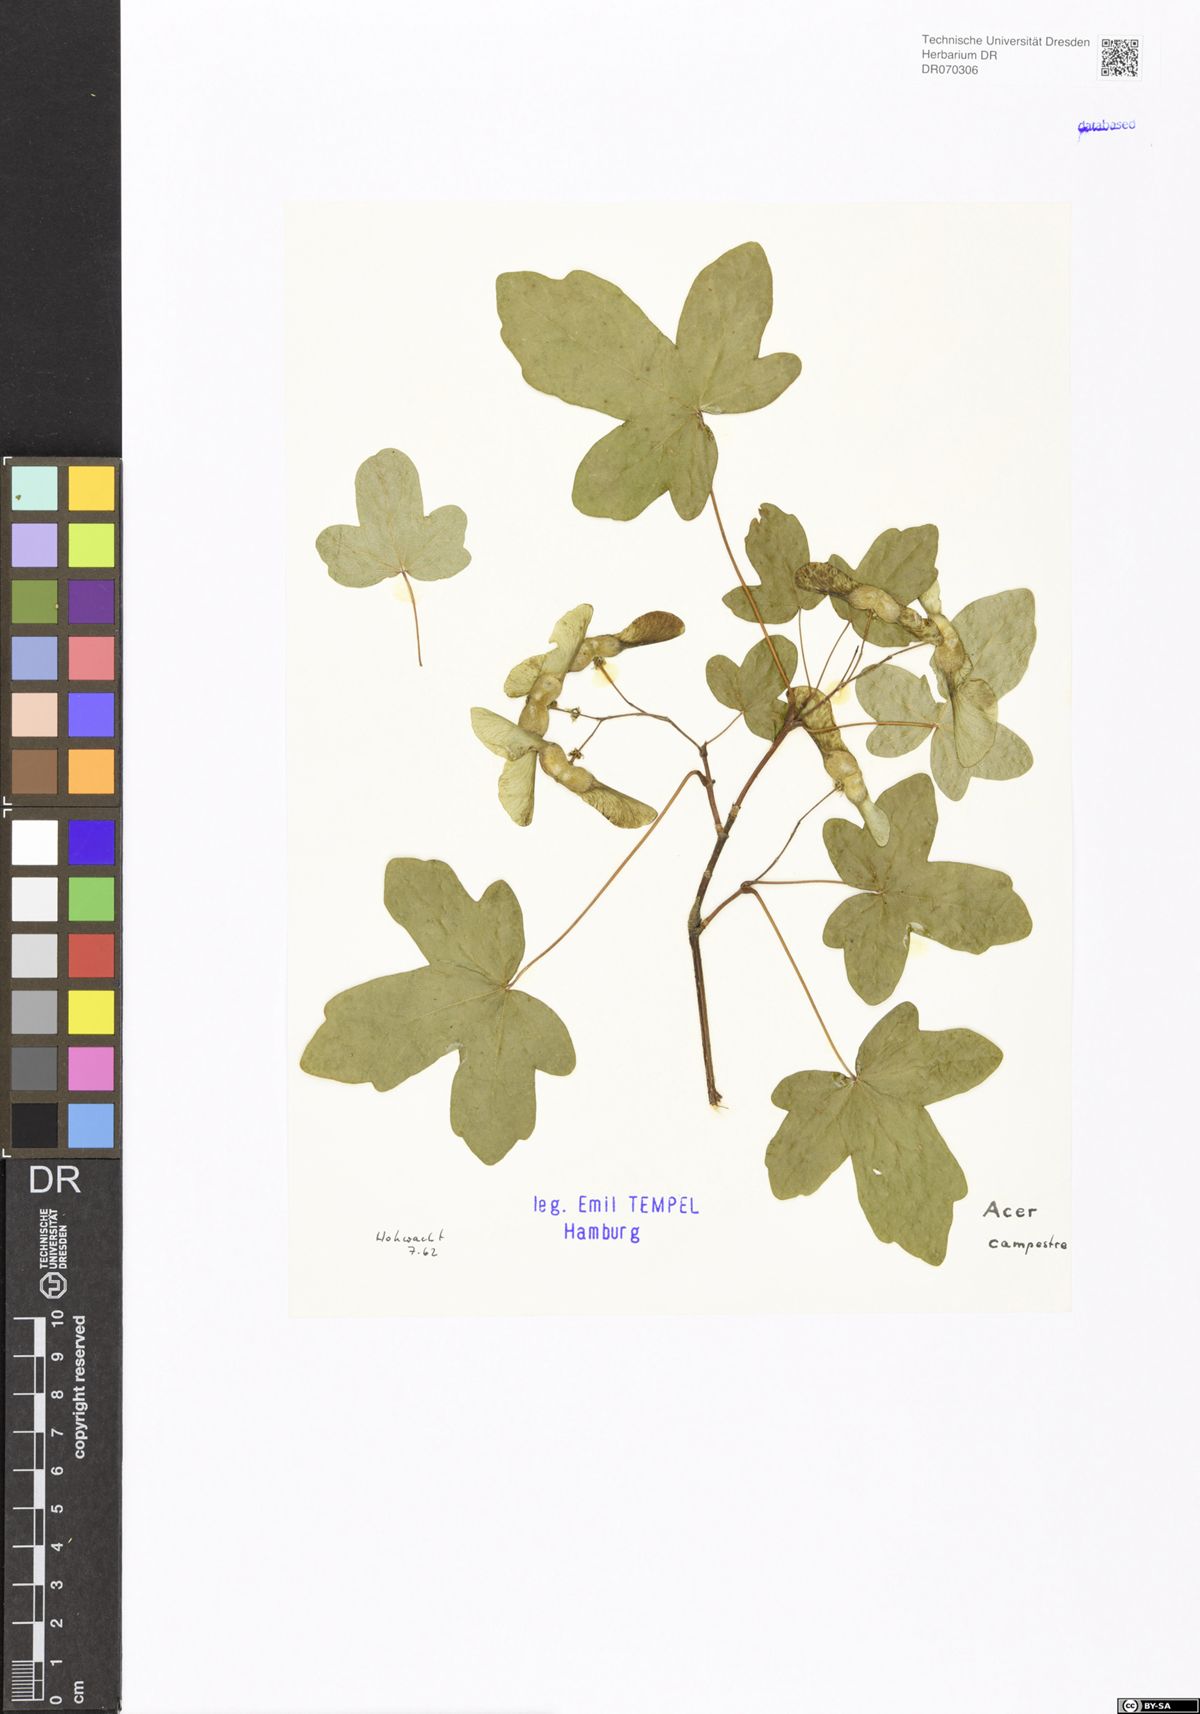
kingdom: Plantae
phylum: Tracheophyta
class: Magnoliopsida
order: Sapindales
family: Sapindaceae
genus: Acer
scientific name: Acer campestre
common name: Field maple
